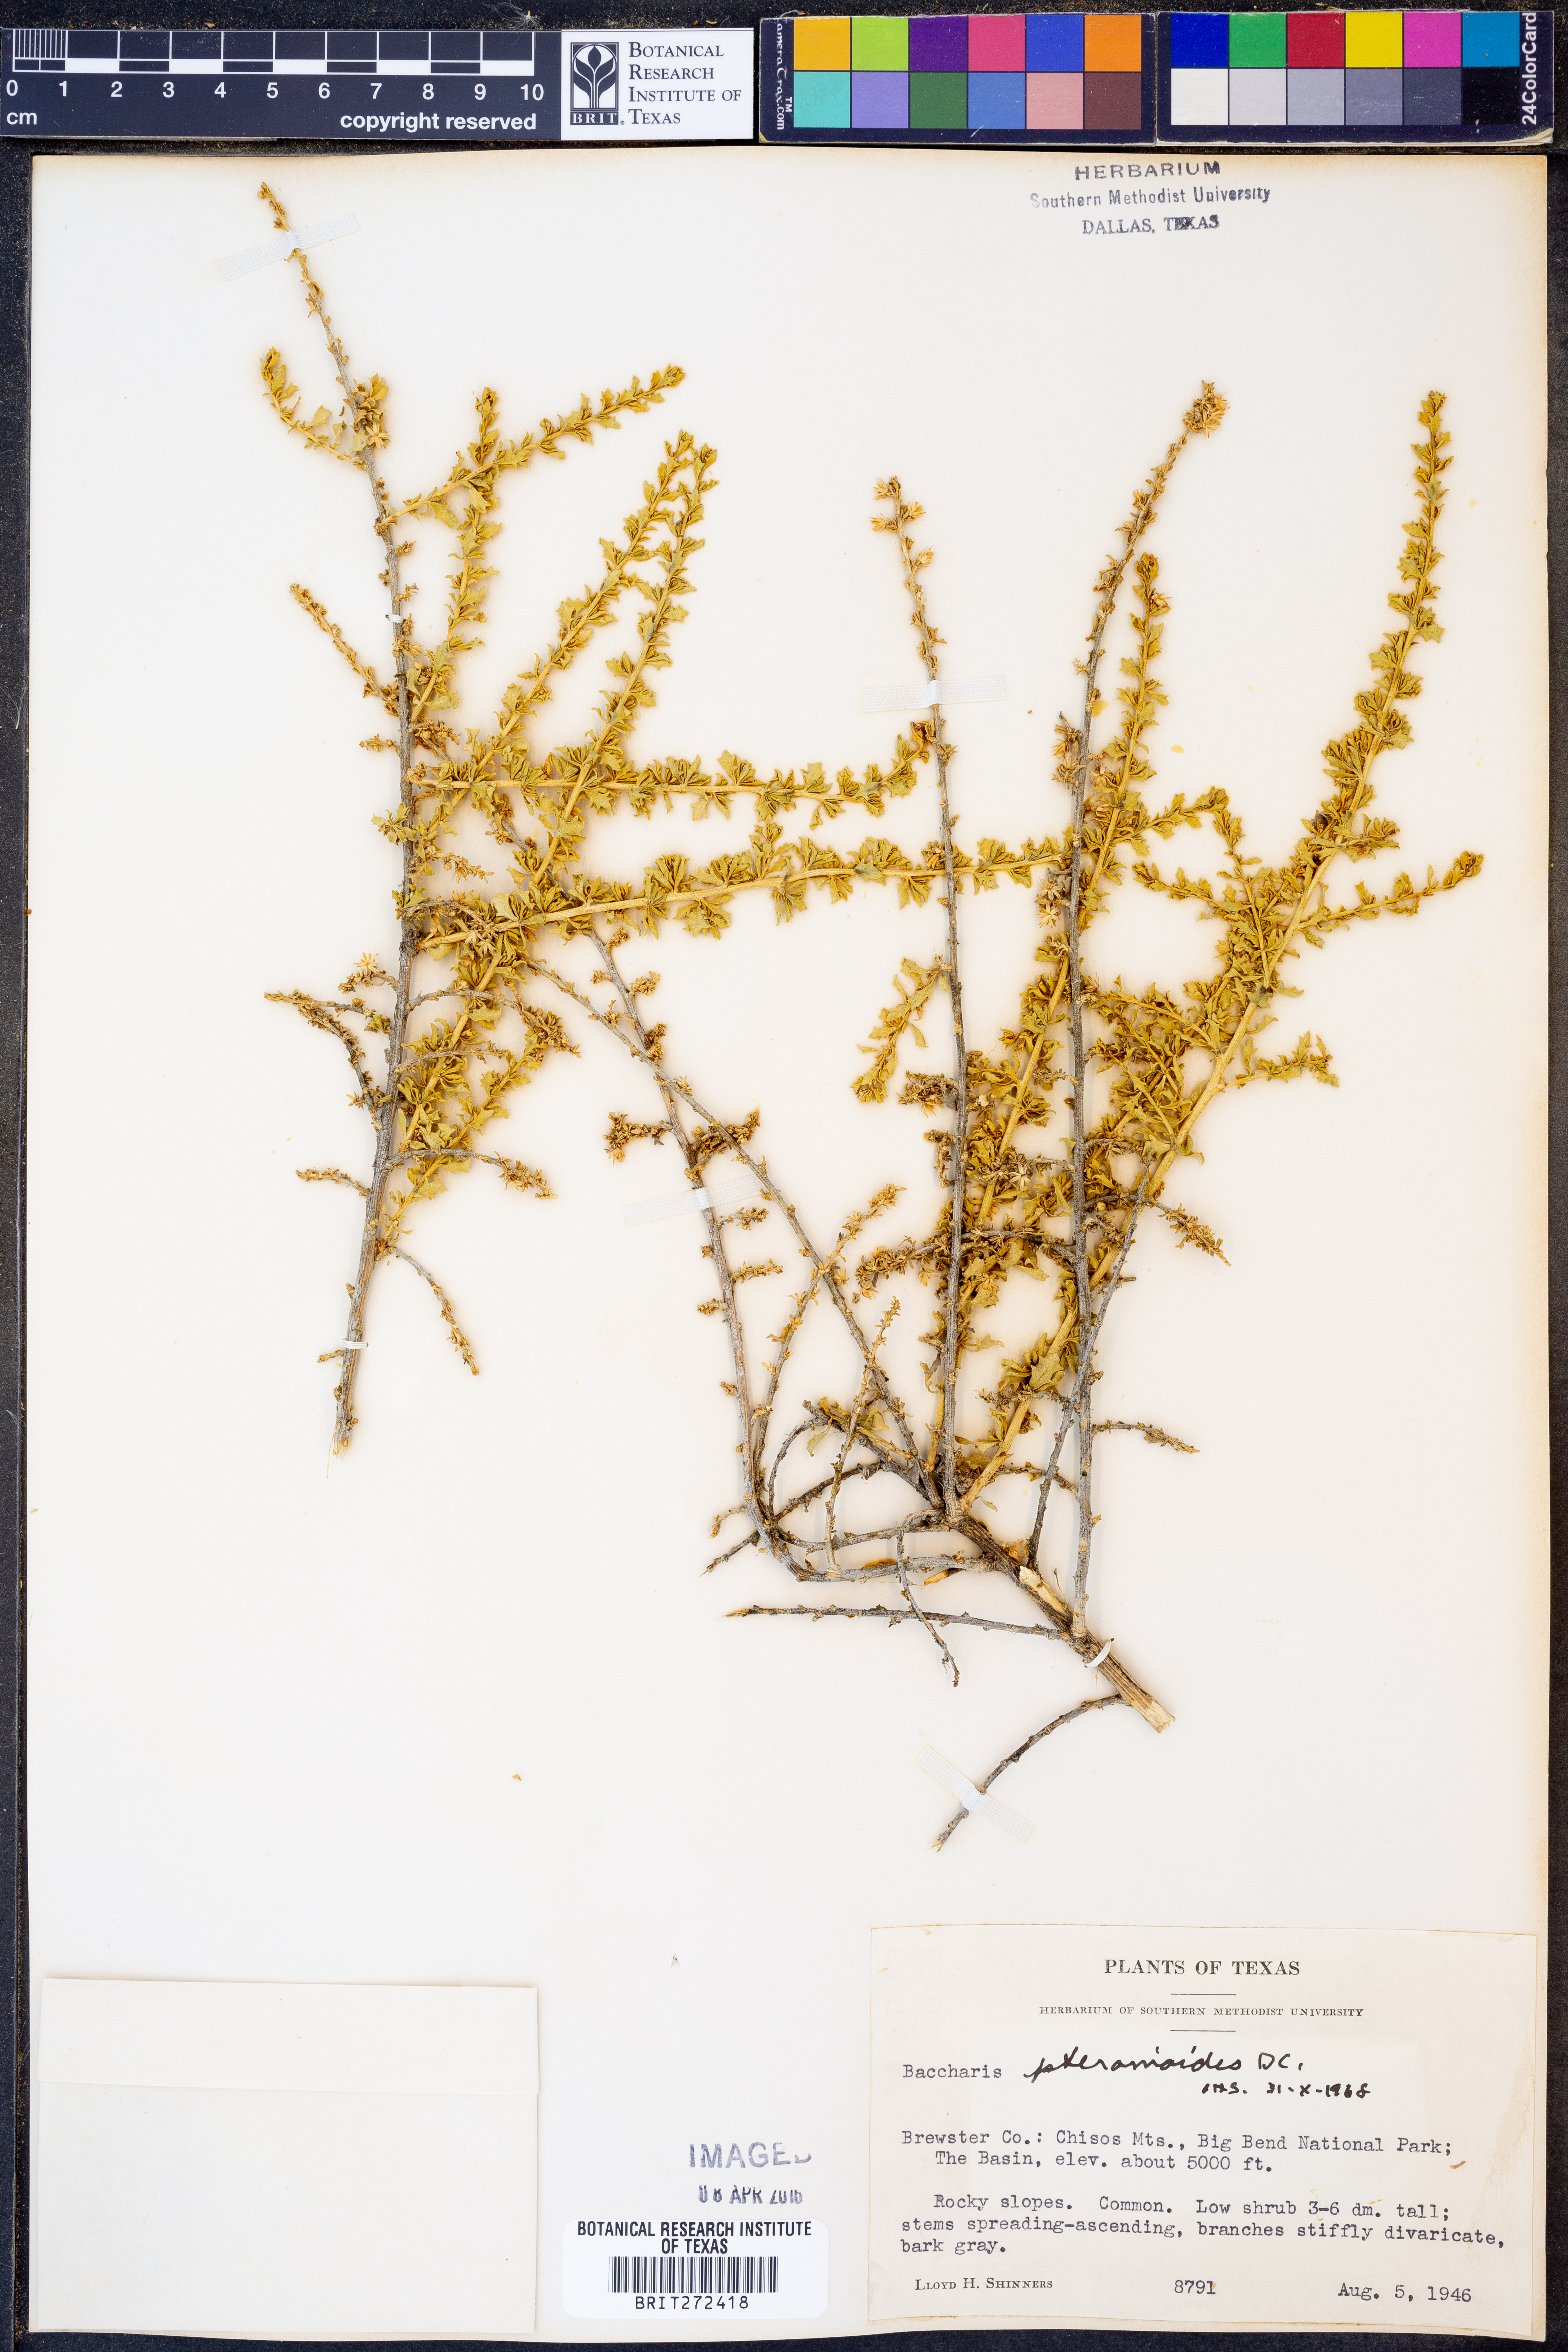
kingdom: Plantae
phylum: Tracheophyta
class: Magnoliopsida
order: Asterales
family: Asteraceae
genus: Baccharis
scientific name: Baccharis pteronioides
